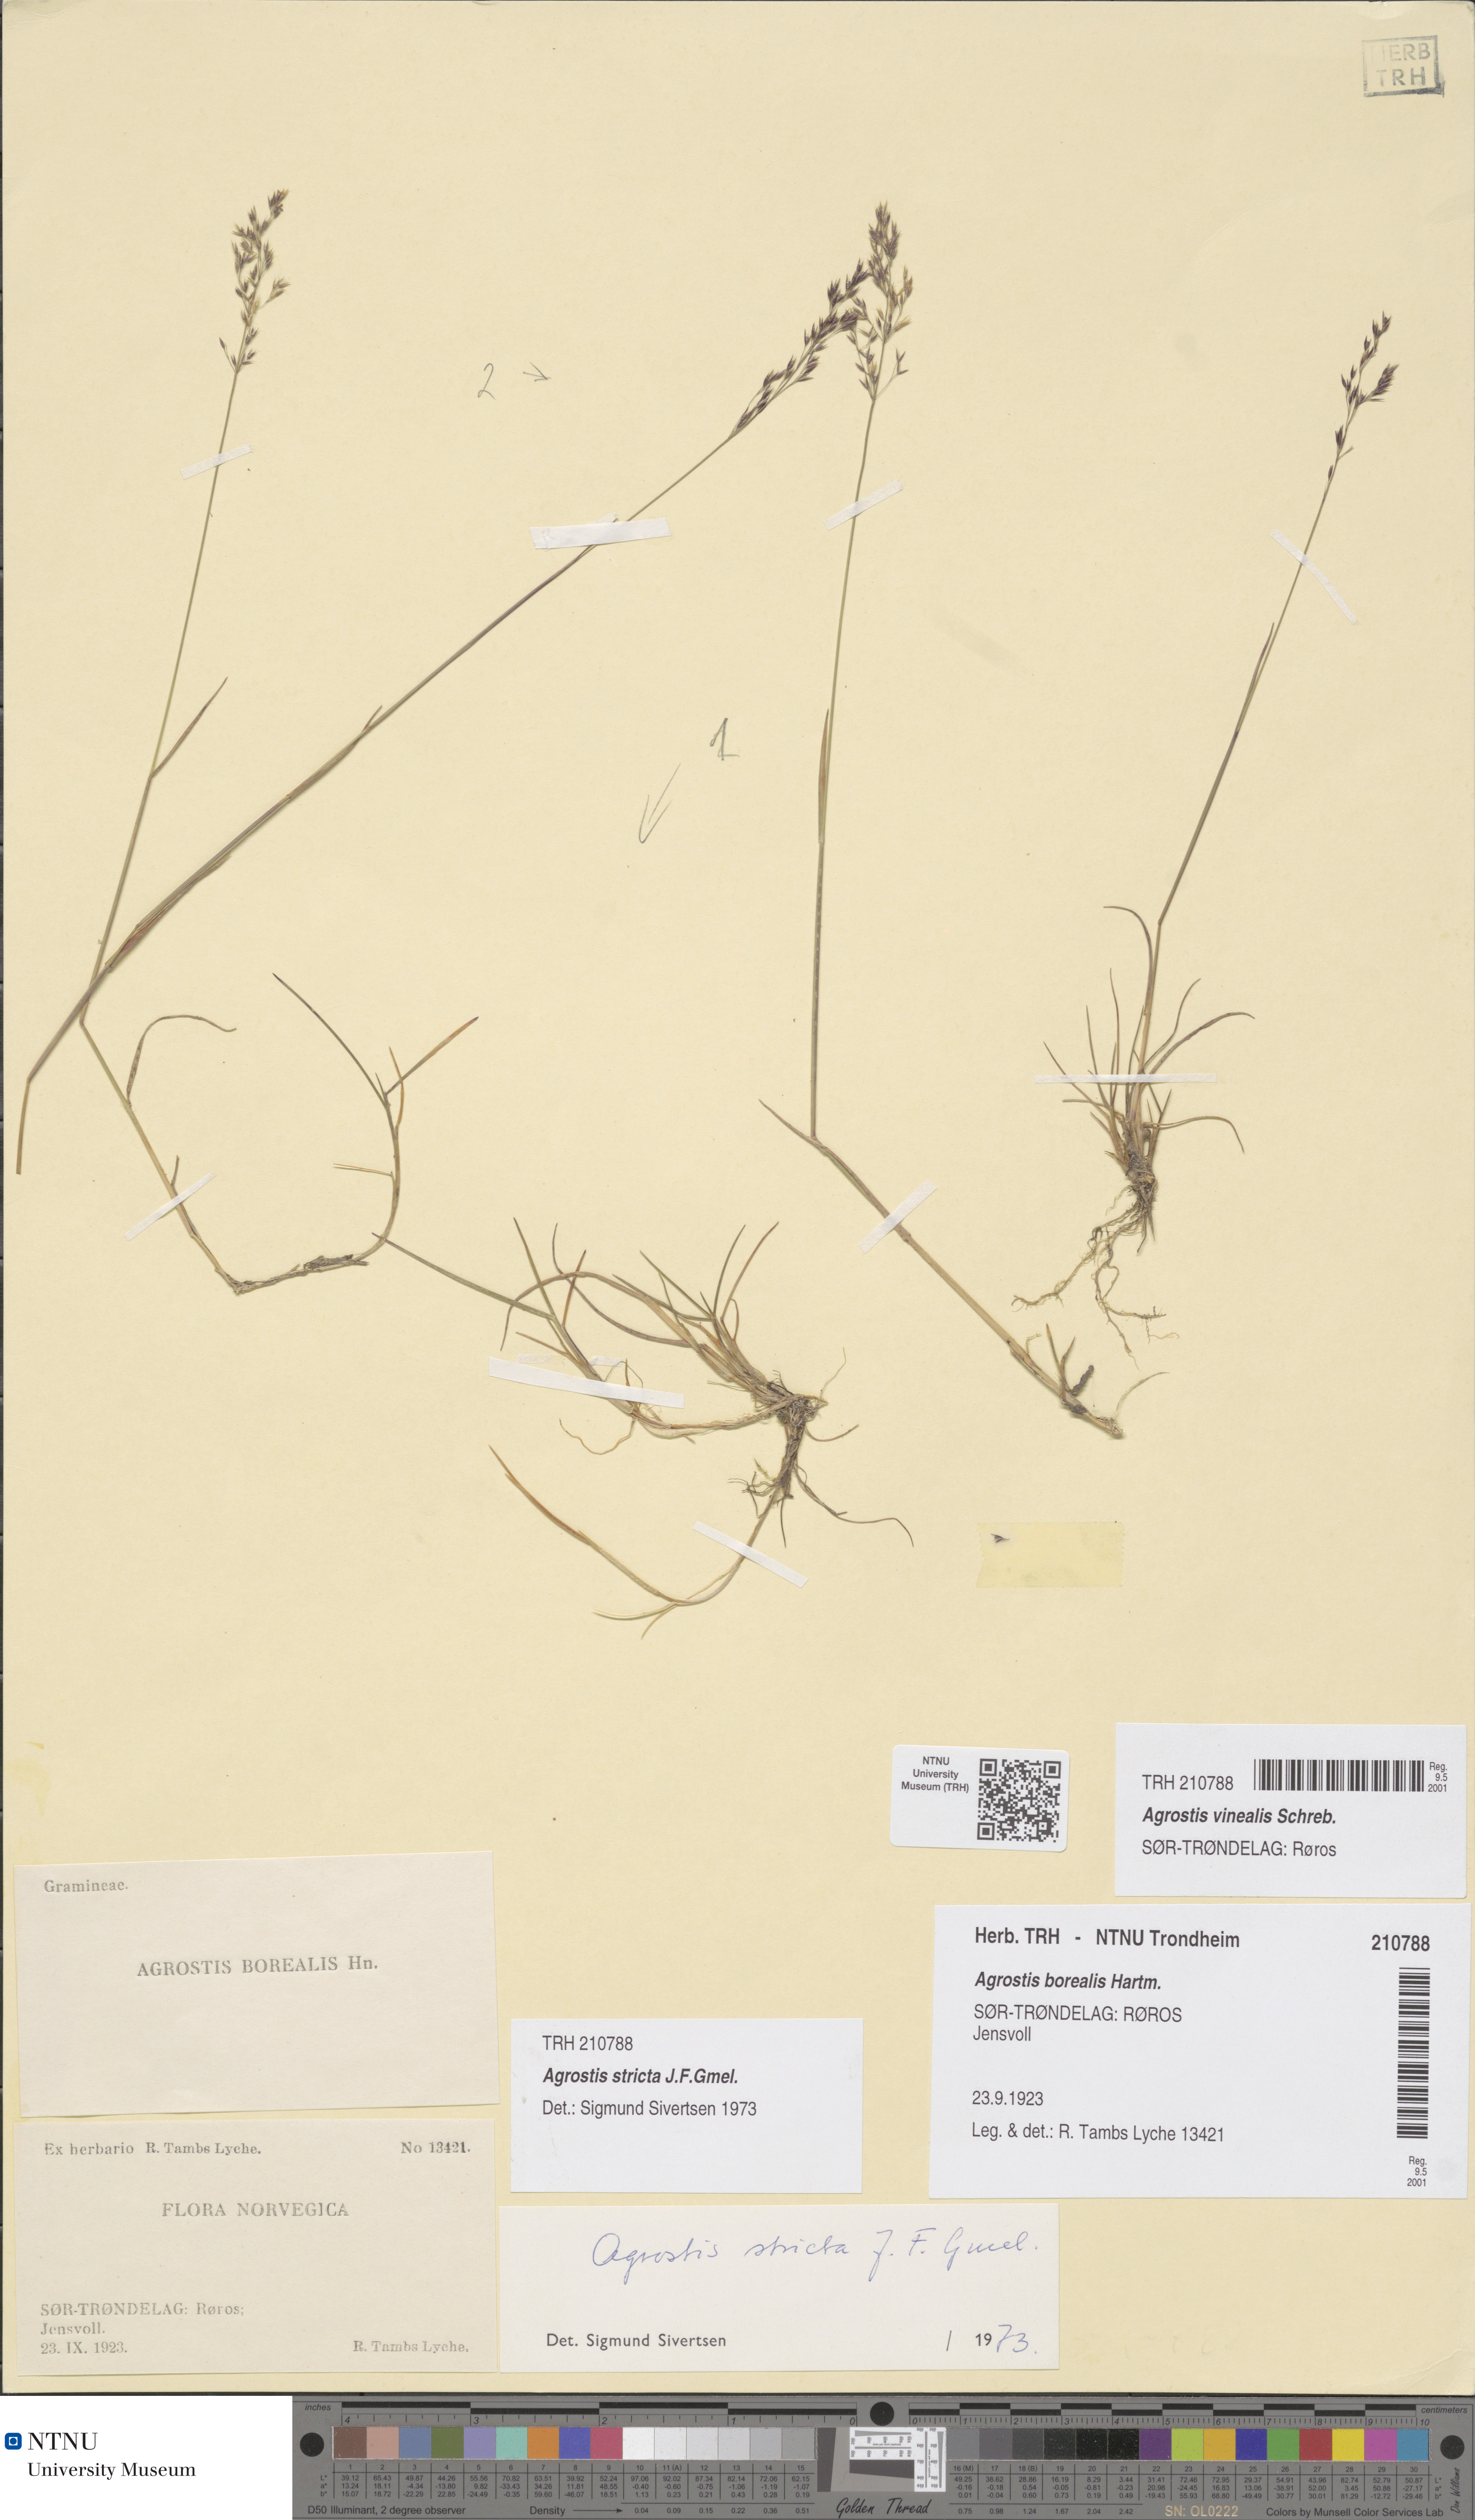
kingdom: Plantae
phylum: Tracheophyta
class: Liliopsida
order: Poales
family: Poaceae
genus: Agrostis
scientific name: Agrostis vinealis
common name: Brown bent
